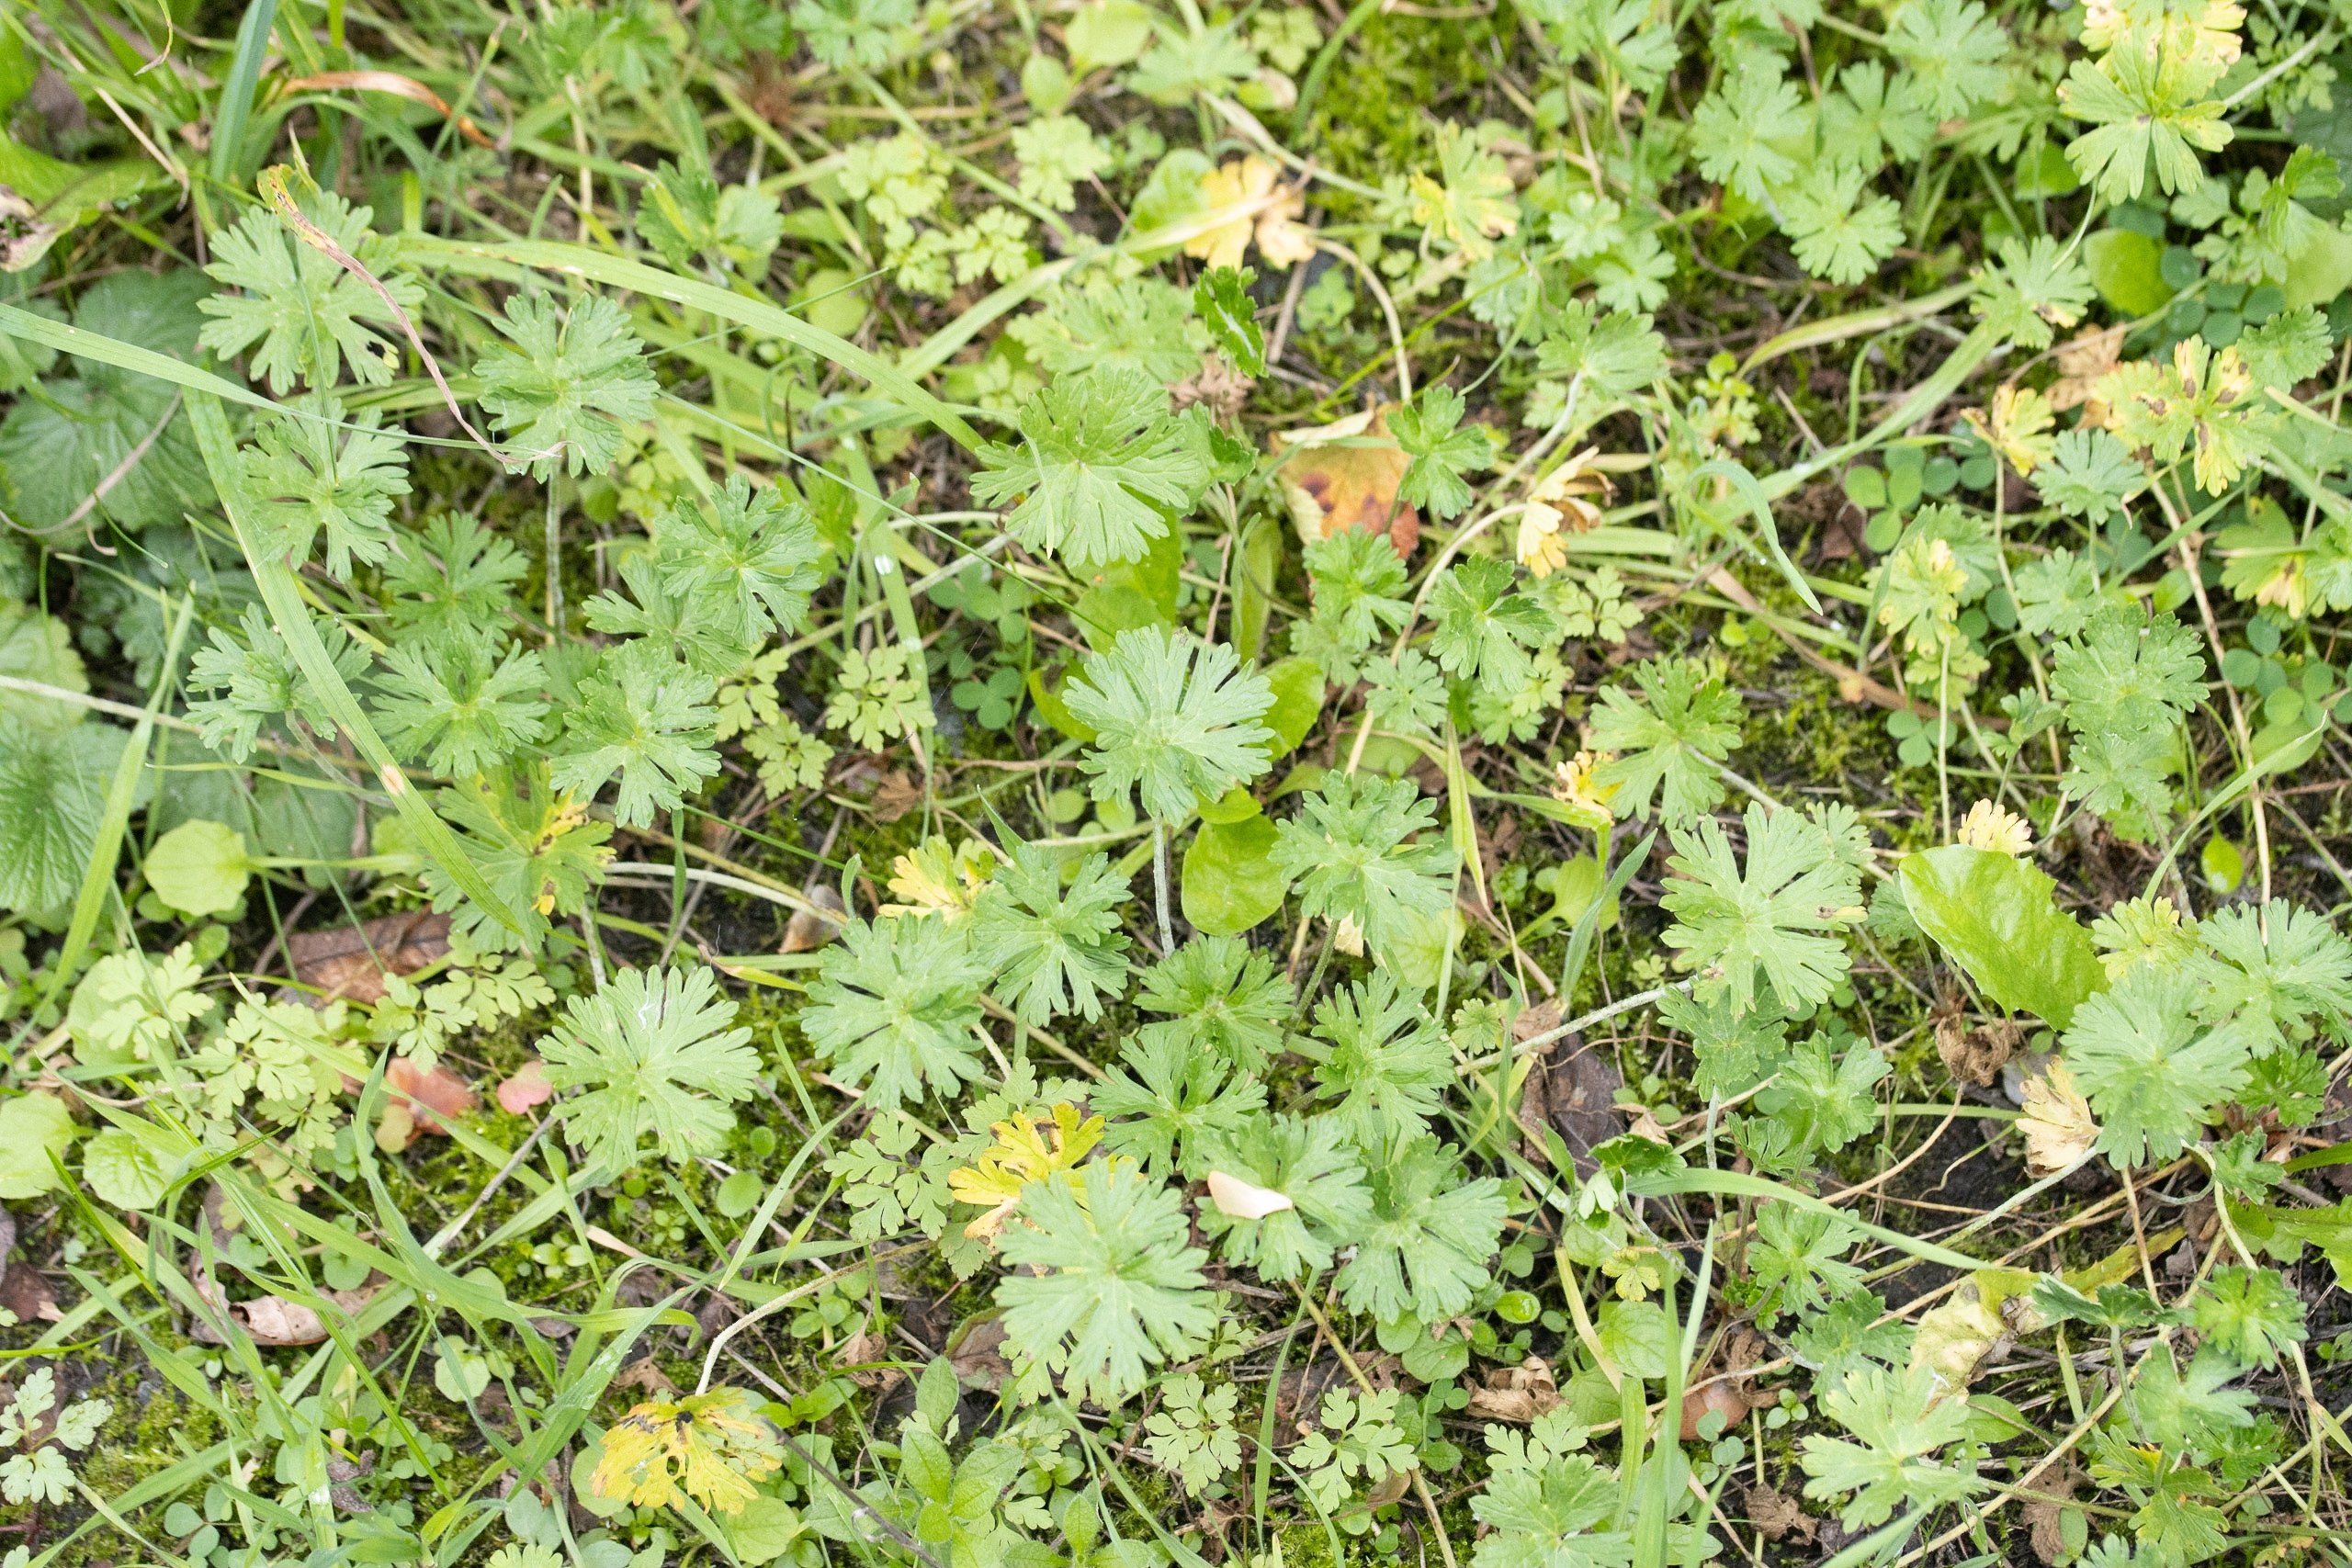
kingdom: Plantae
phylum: Tracheophyta
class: Magnoliopsida
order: Geraniales
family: Geraniaceae
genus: Geranium
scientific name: Geranium pusillum
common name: Liden storkenæb
